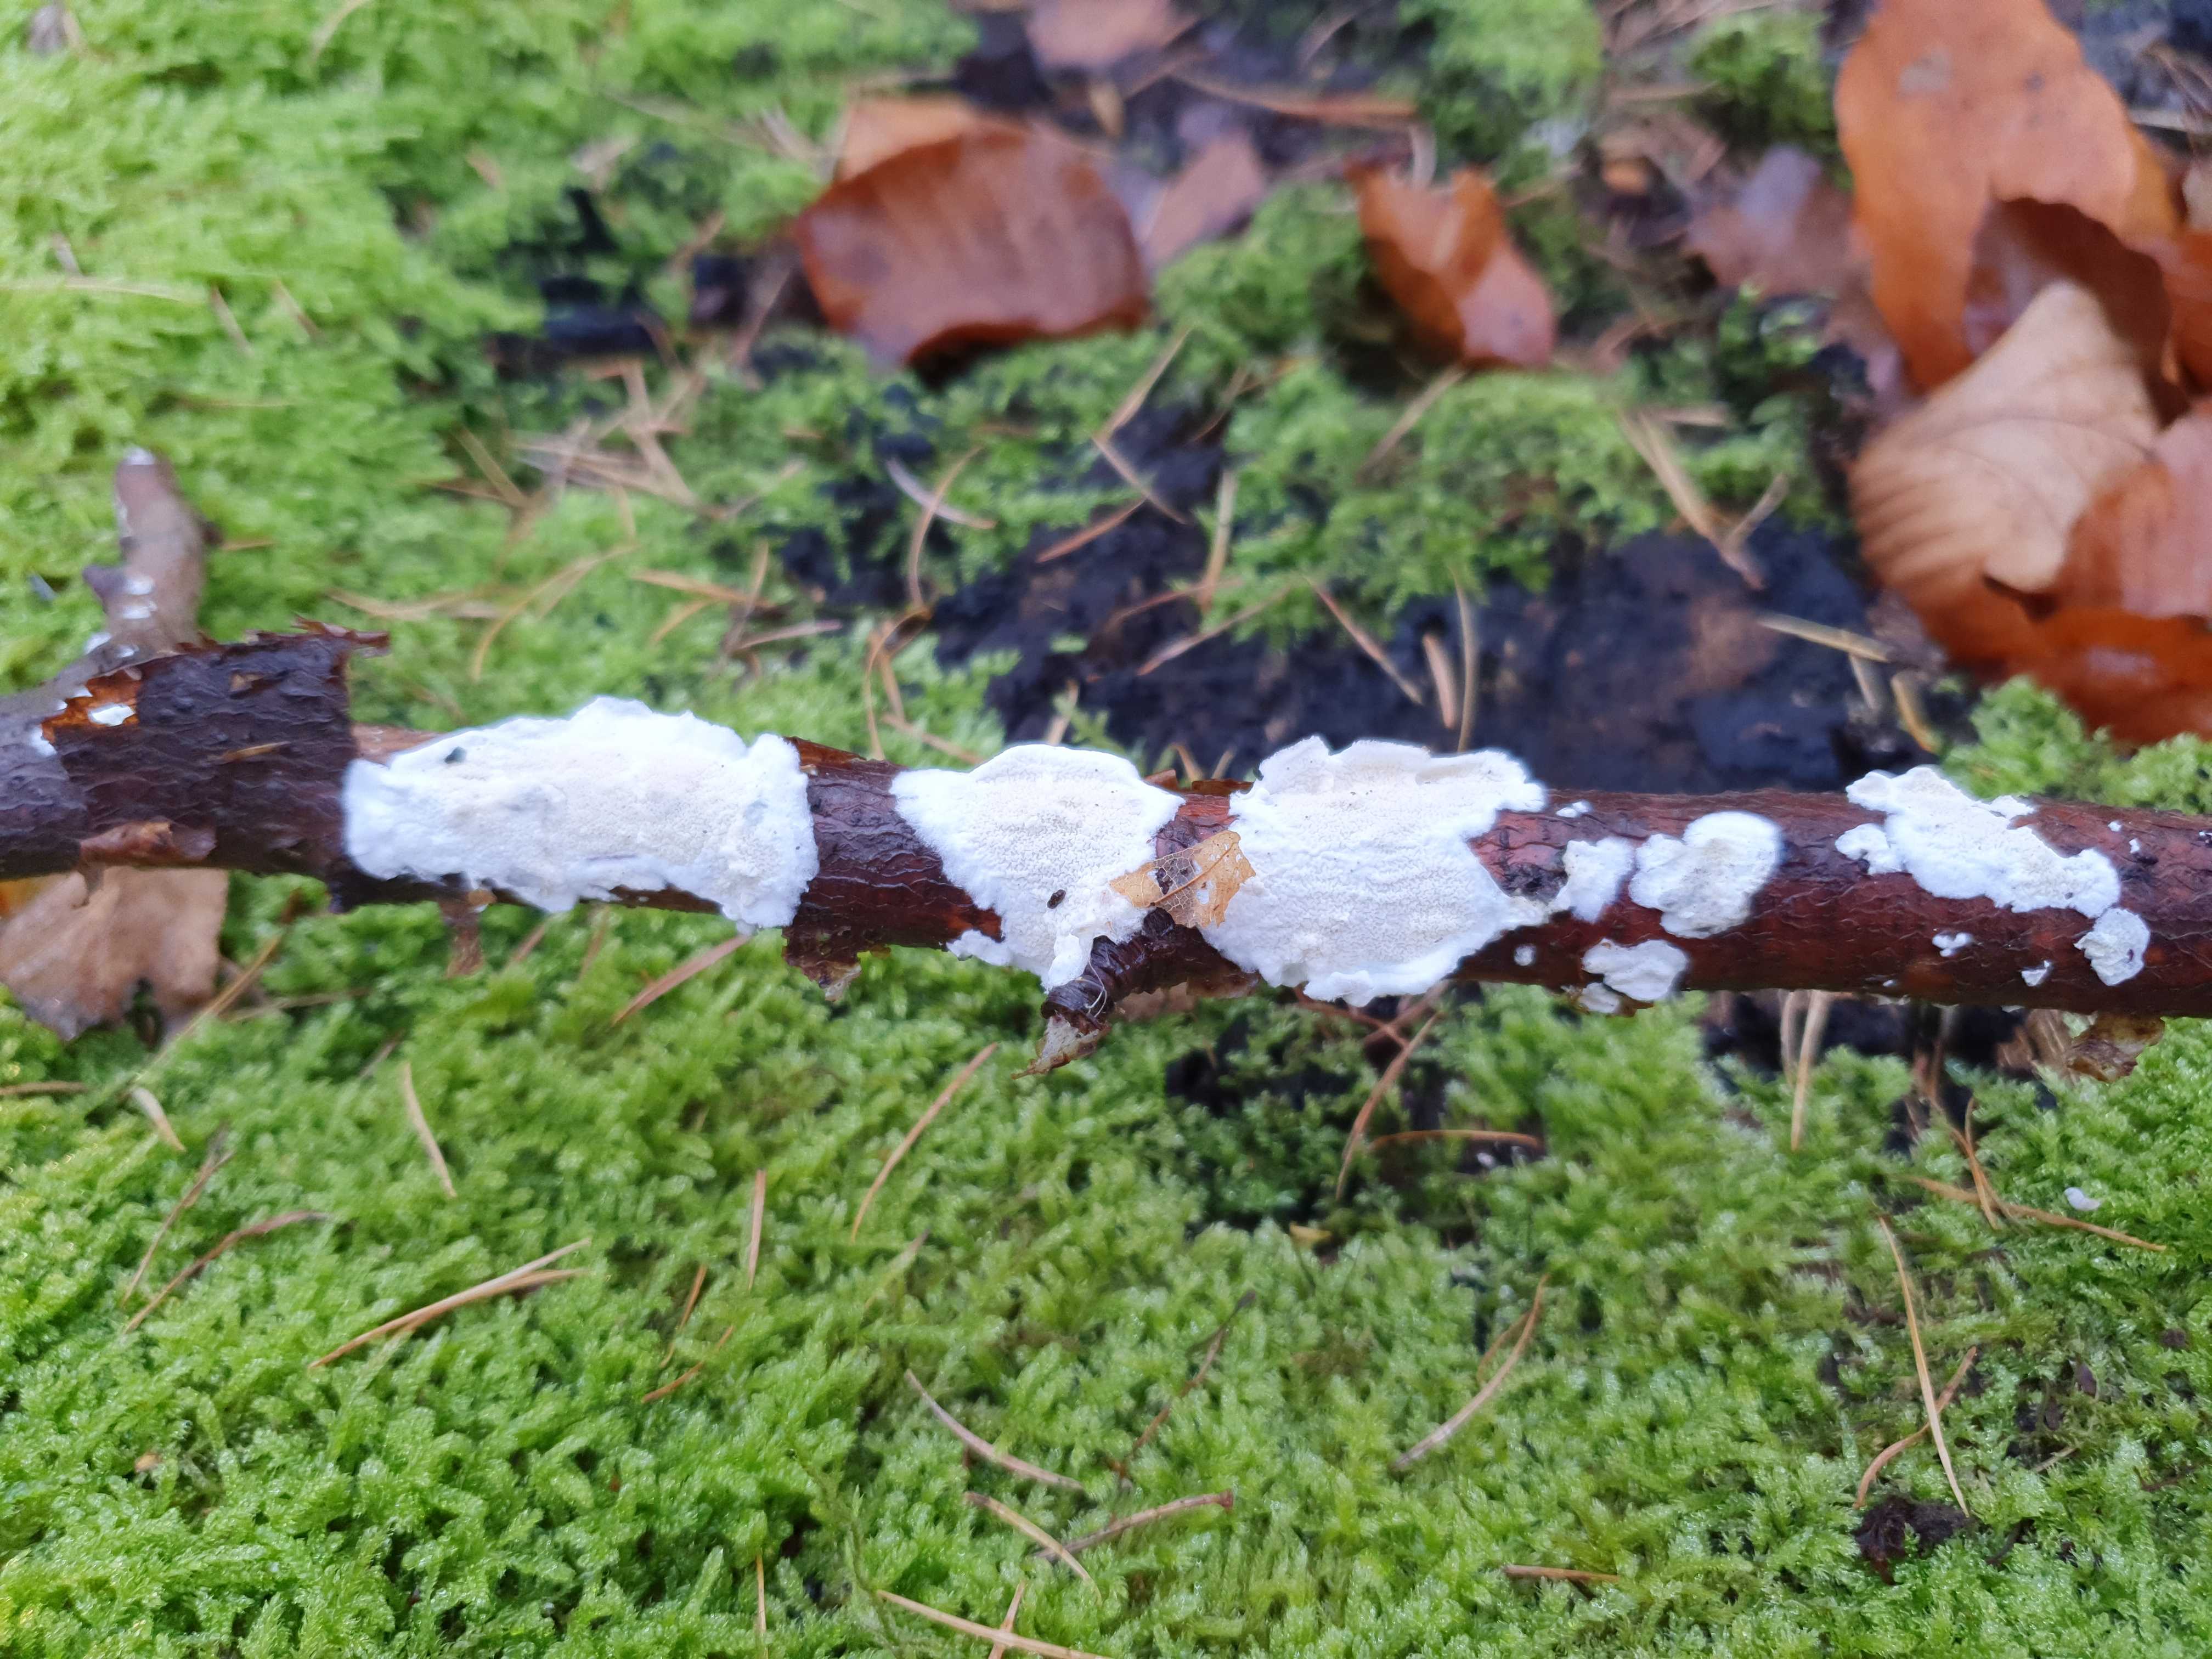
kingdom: Fungi
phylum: Basidiomycota
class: Agaricomycetes
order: Polyporales
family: Irpicaceae
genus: Byssomerulius
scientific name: Byssomerulius corium
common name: læder-åresvamp
